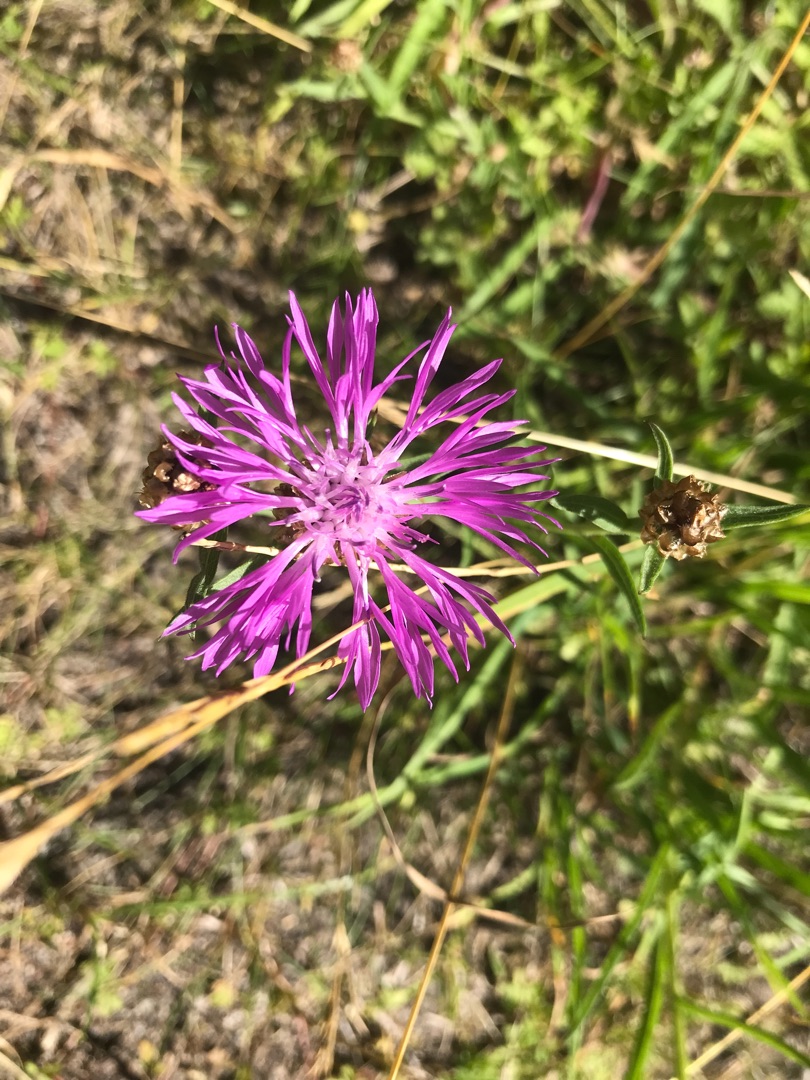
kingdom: Plantae
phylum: Tracheophyta
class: Magnoliopsida
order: Asterales
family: Asteraceae
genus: Centaurea
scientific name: Centaurea jacea
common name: Almindelig knopurt
